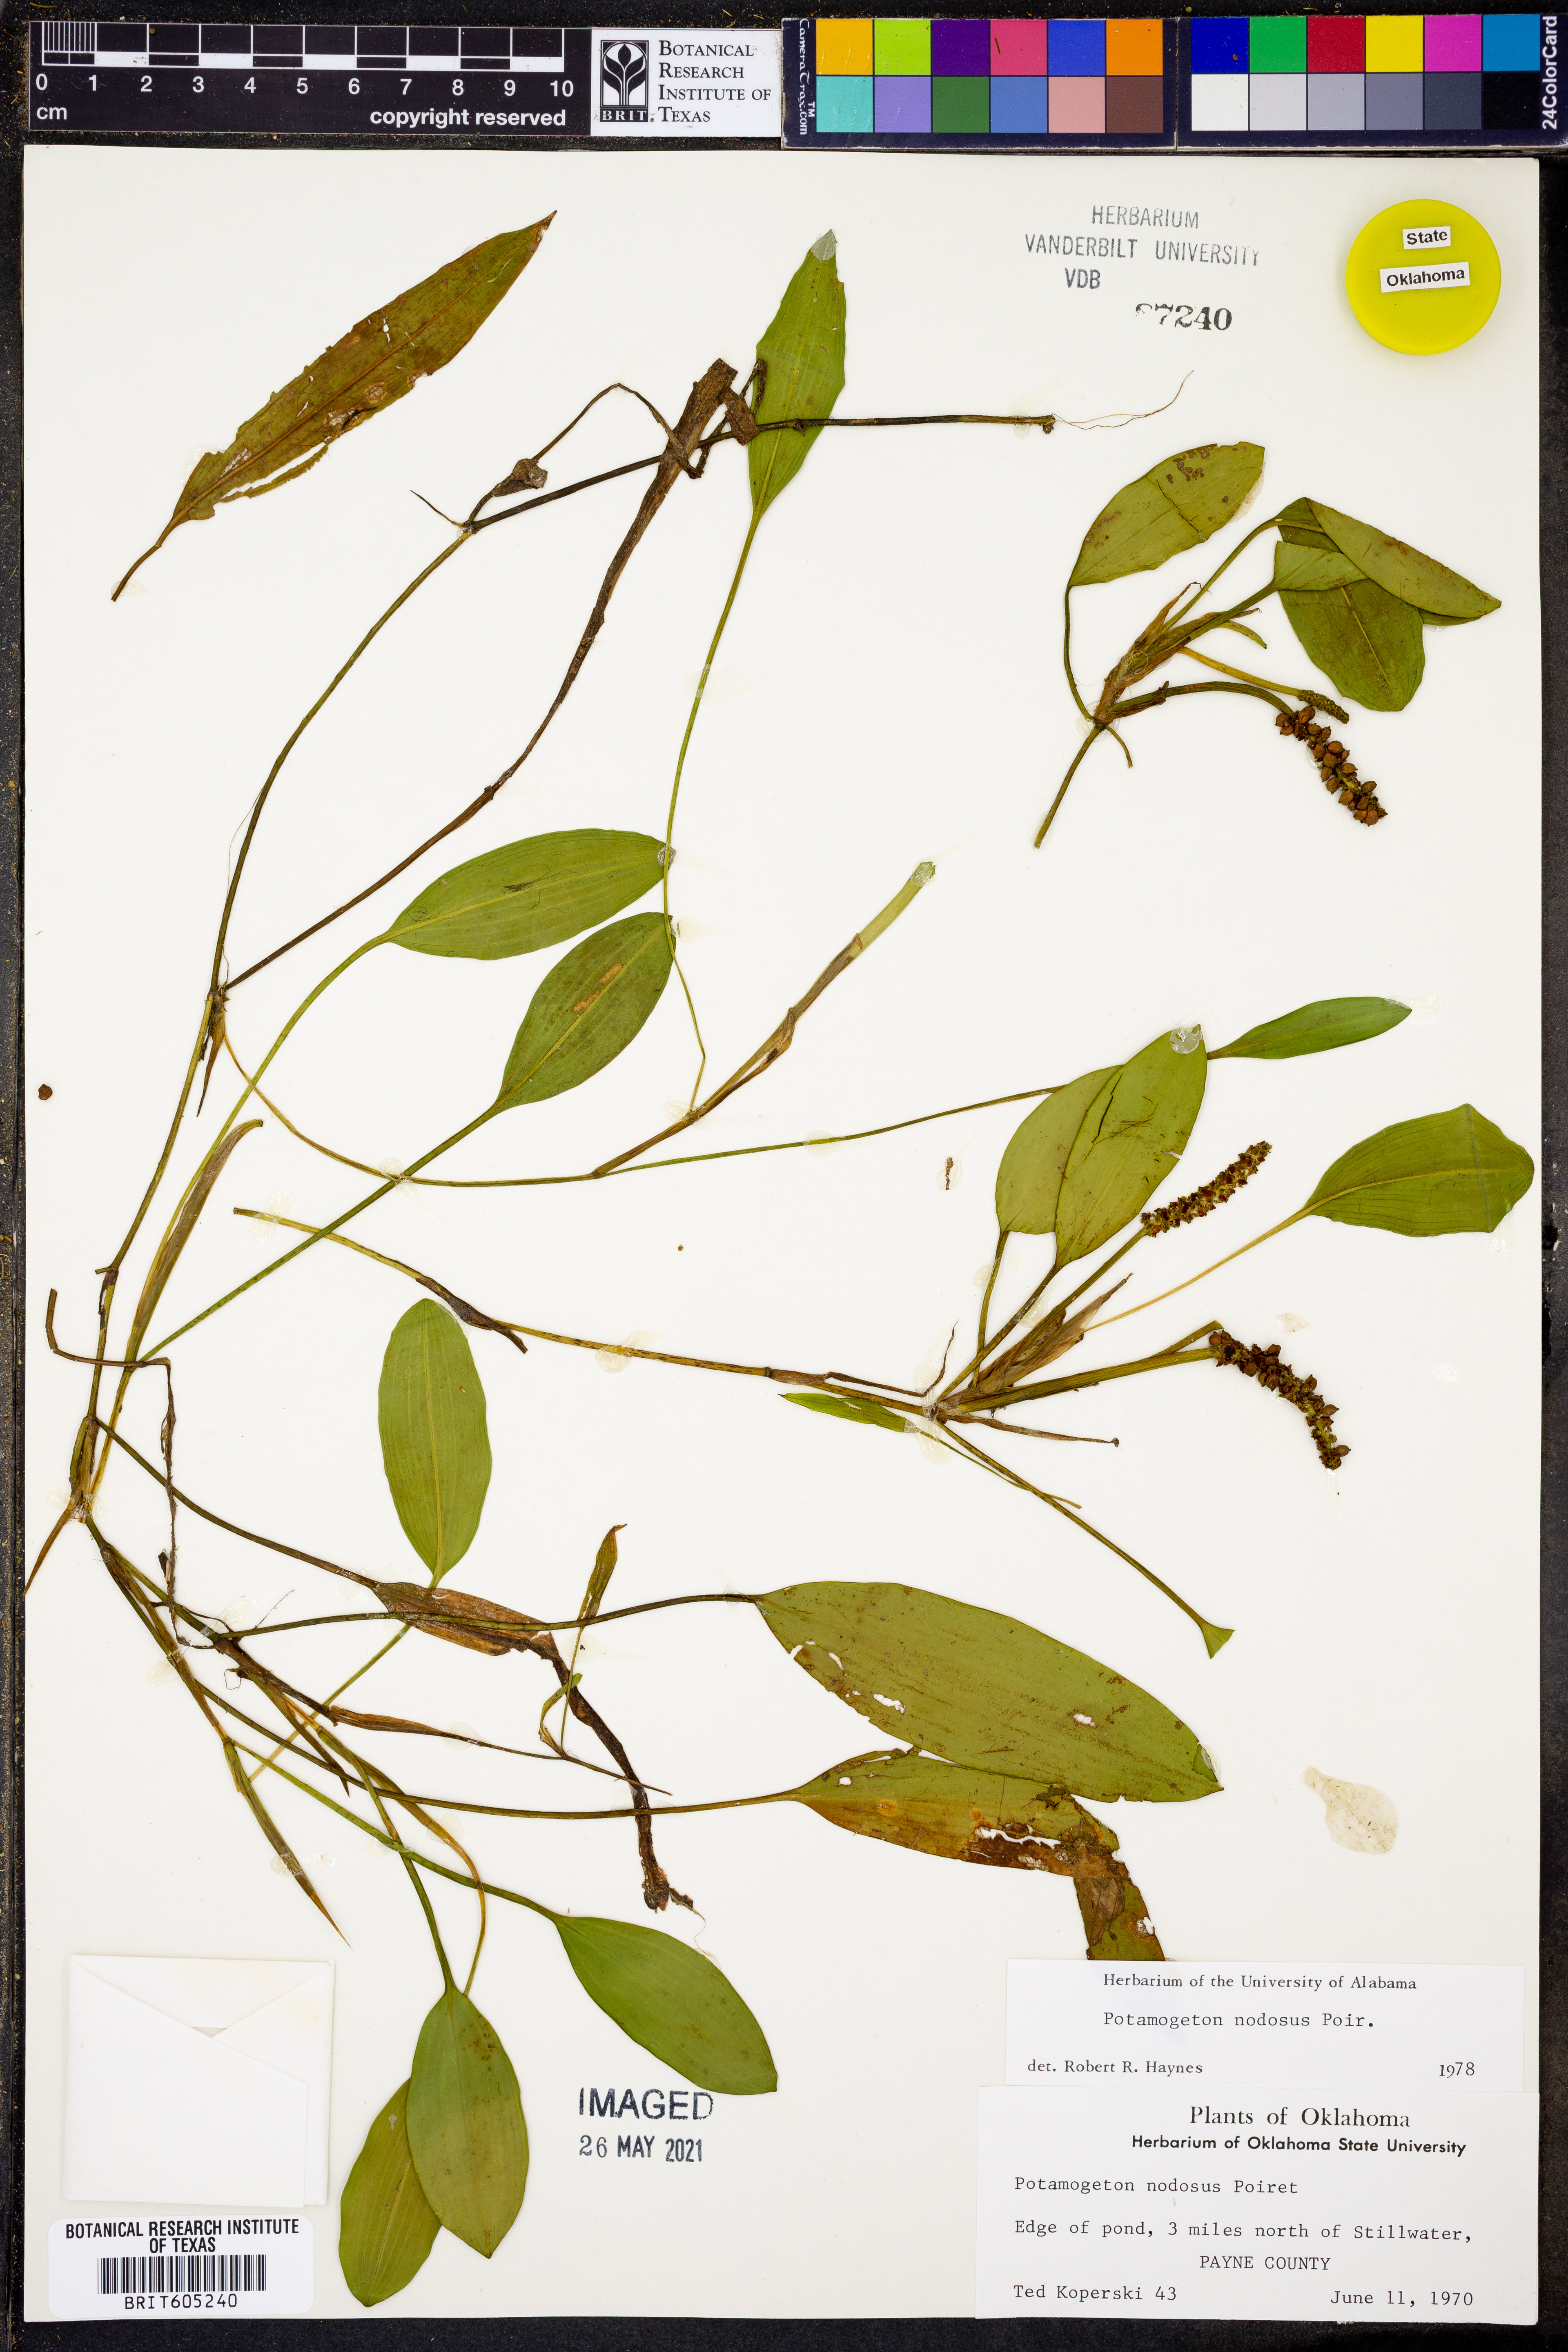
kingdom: Plantae
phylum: Tracheophyta
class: Liliopsida
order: Alismatales
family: Potamogetonaceae
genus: Potamogeton
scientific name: Potamogeton nodosus
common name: Loddon pondweed
